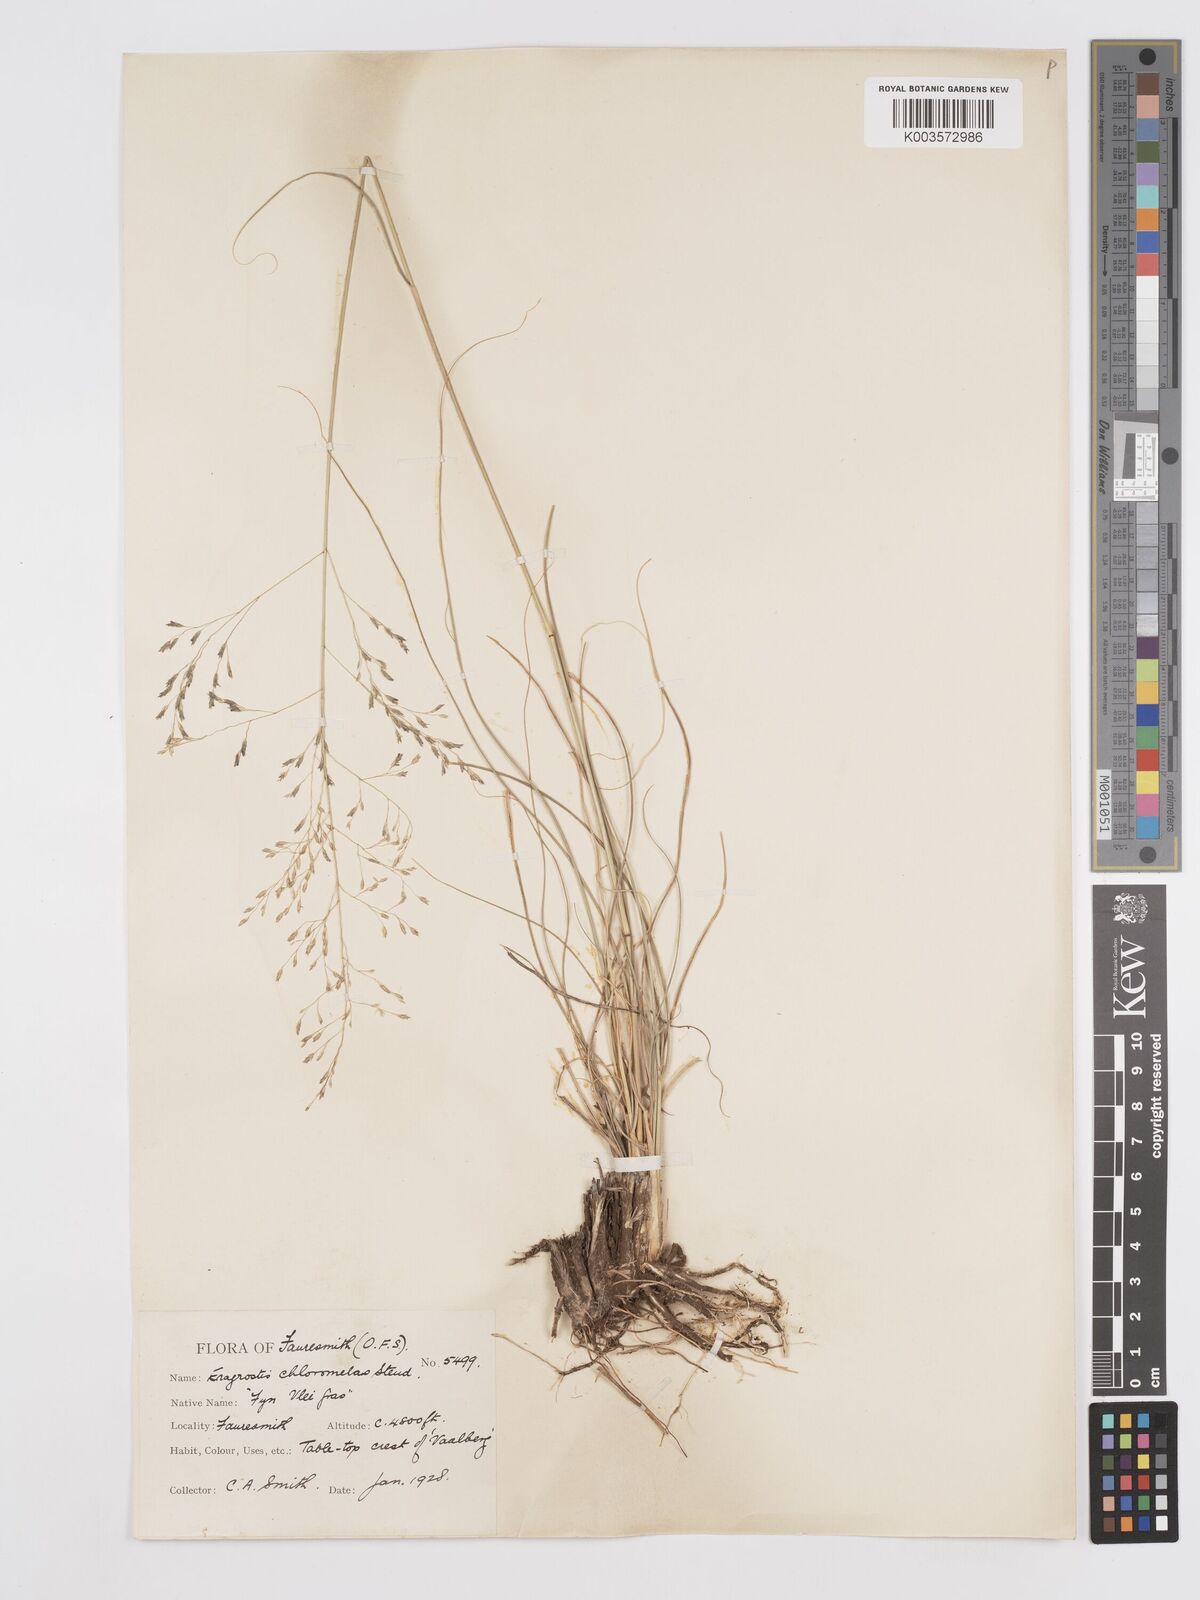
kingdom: Plantae
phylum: Tracheophyta
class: Liliopsida
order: Poales
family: Poaceae
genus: Eragrostis
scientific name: Eragrostis curvula
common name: African love-grass
